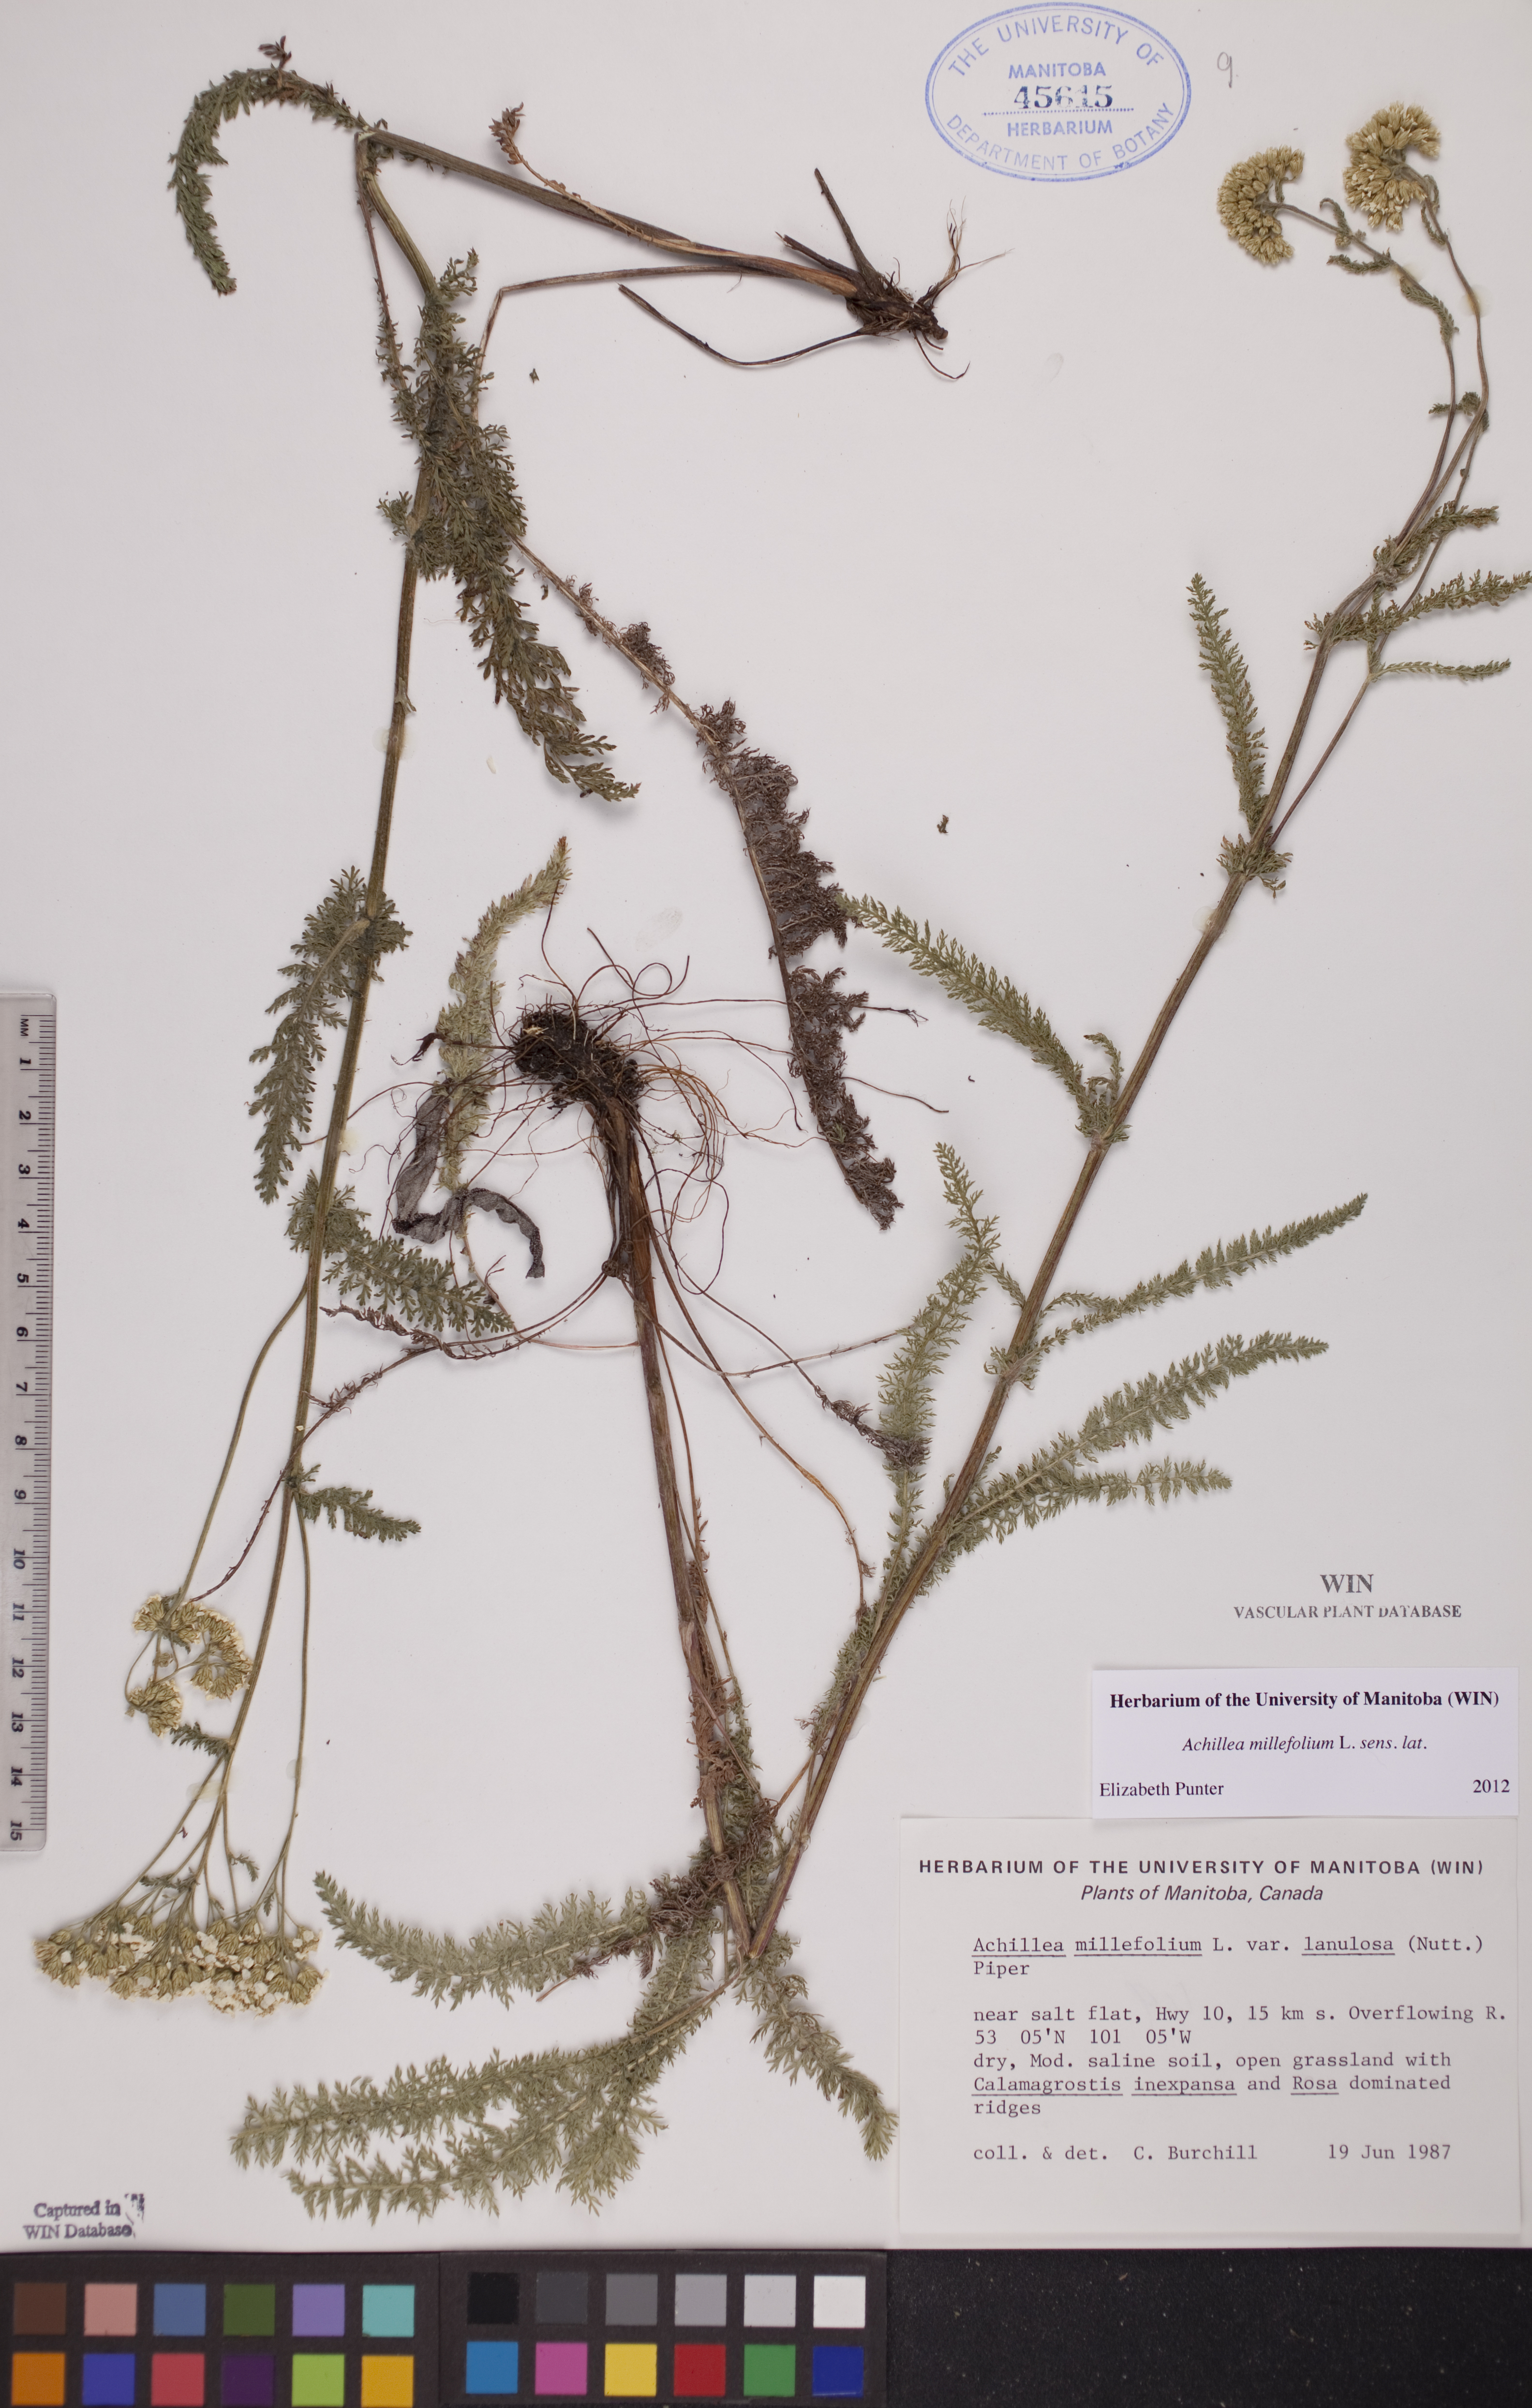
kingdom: Plantae
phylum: Tracheophyta
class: Magnoliopsida
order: Asterales
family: Asteraceae
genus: Achillea
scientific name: Achillea millefolium
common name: Yarrow
